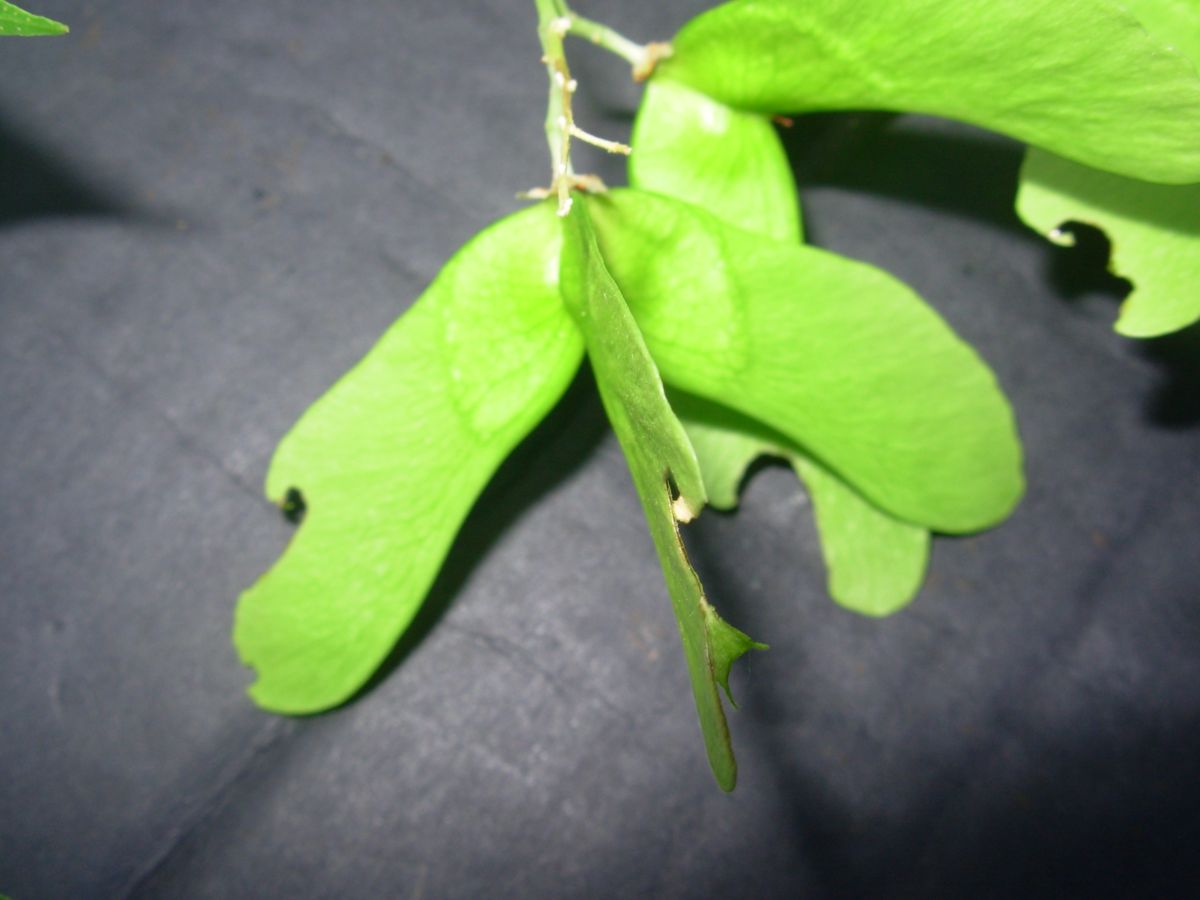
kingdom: Plantae
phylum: Tracheophyta
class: Magnoliopsida
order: Sapindales
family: Sapindaceae
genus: Thouinidium
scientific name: Thouinidium decandrum
